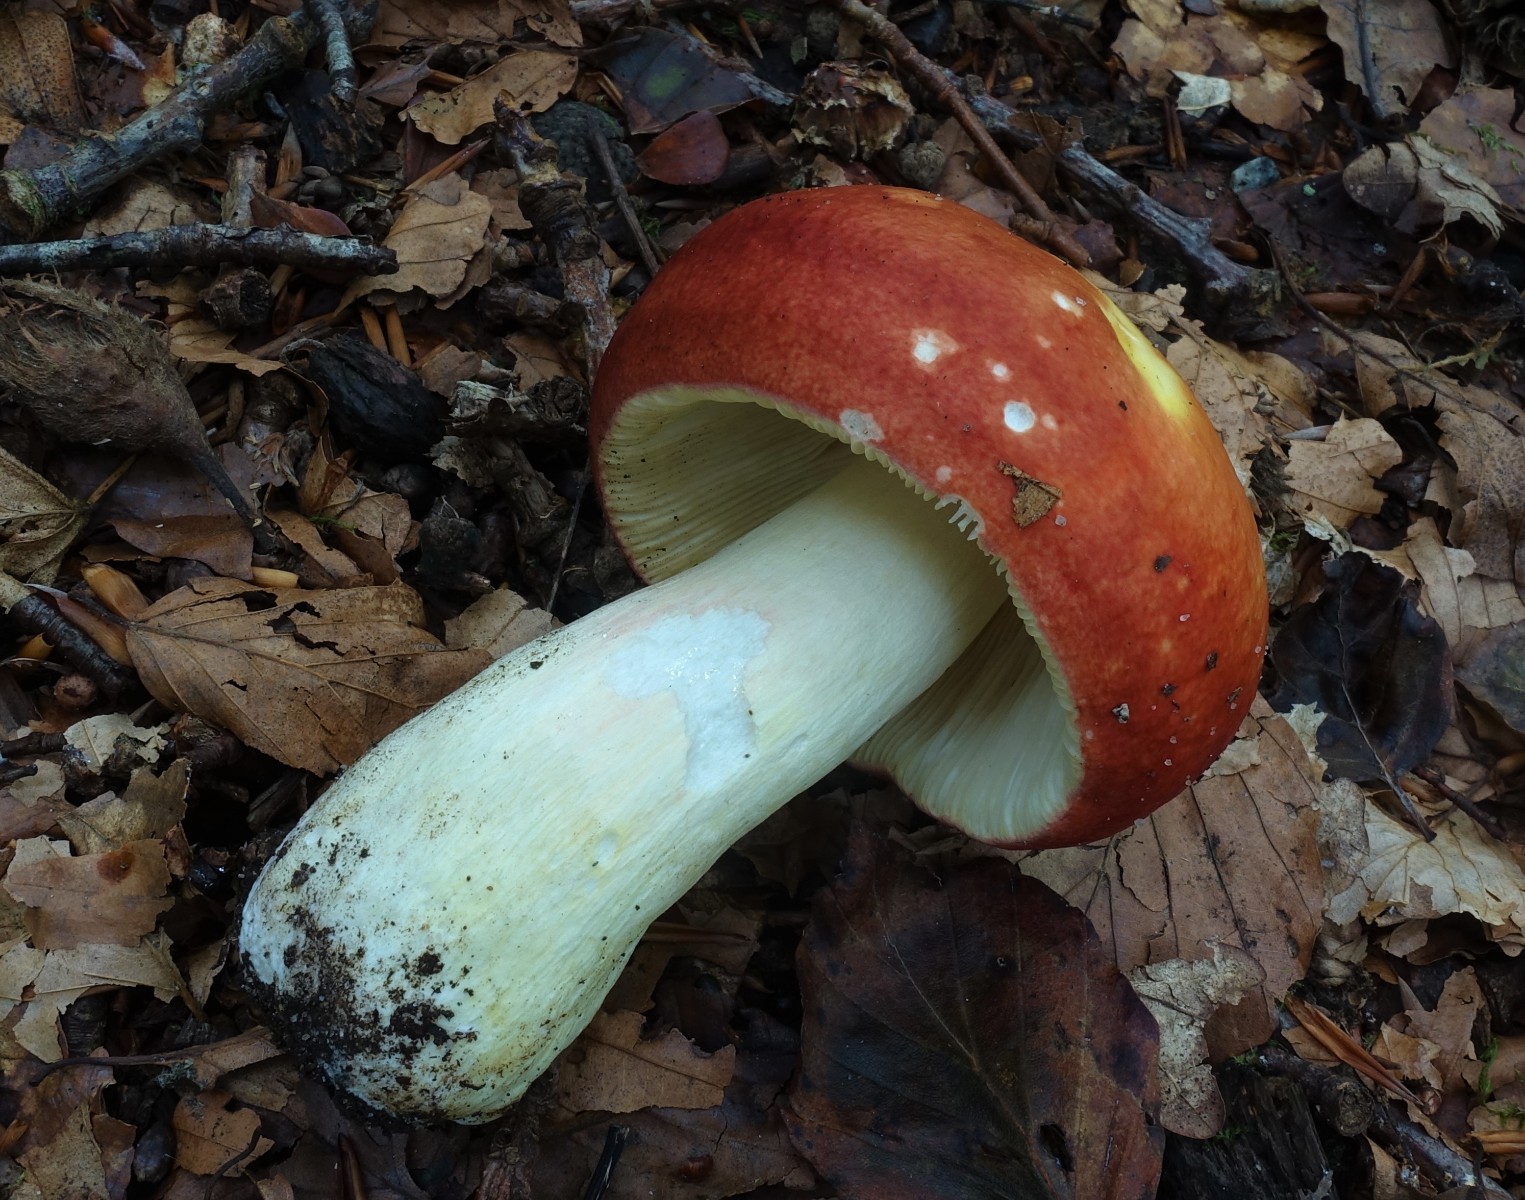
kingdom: Fungi
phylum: Basidiomycota
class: Agaricomycetes
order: Russulales
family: Russulaceae
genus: Russula
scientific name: Russula aurea
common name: gylden skørhat
